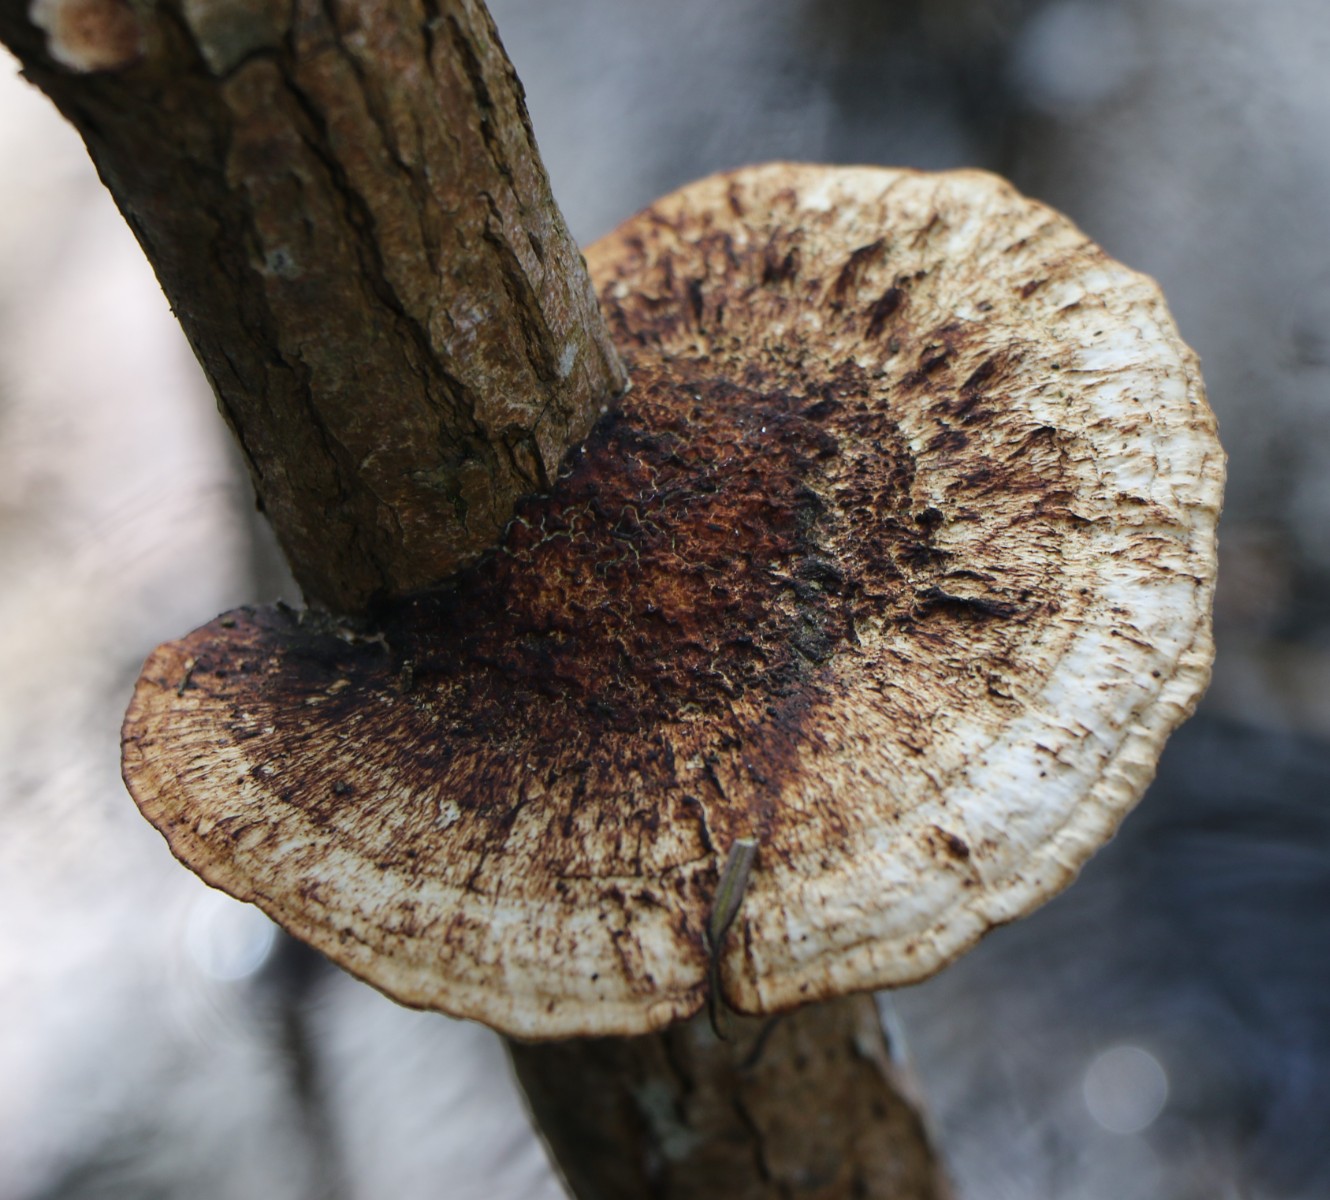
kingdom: Fungi
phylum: Basidiomycota
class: Agaricomycetes
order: Polyporales
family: Polyporaceae
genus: Daedaleopsis
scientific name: Daedaleopsis confragosa
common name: rødmende læderporesvamp
